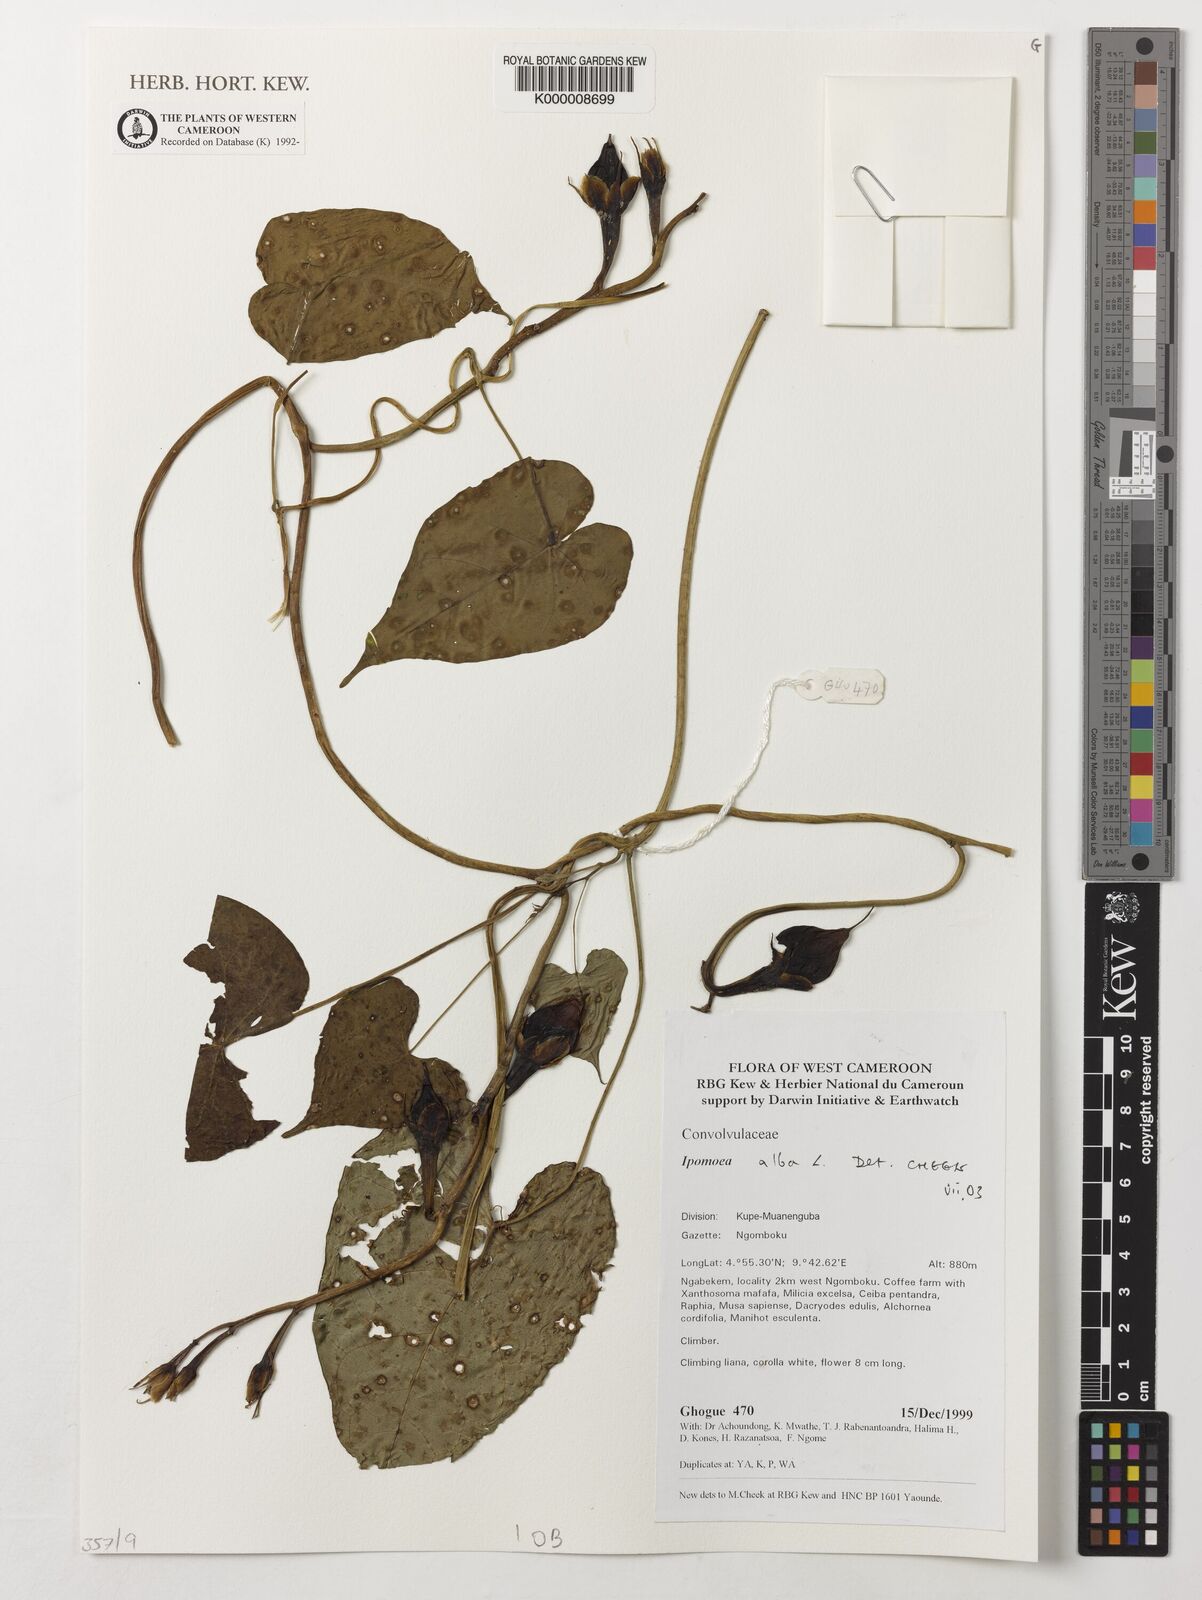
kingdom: Plantae
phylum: Tracheophyta
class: Magnoliopsida
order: Solanales
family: Convolvulaceae
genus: Ipomoea
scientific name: Ipomoea alba
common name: Moonflower
